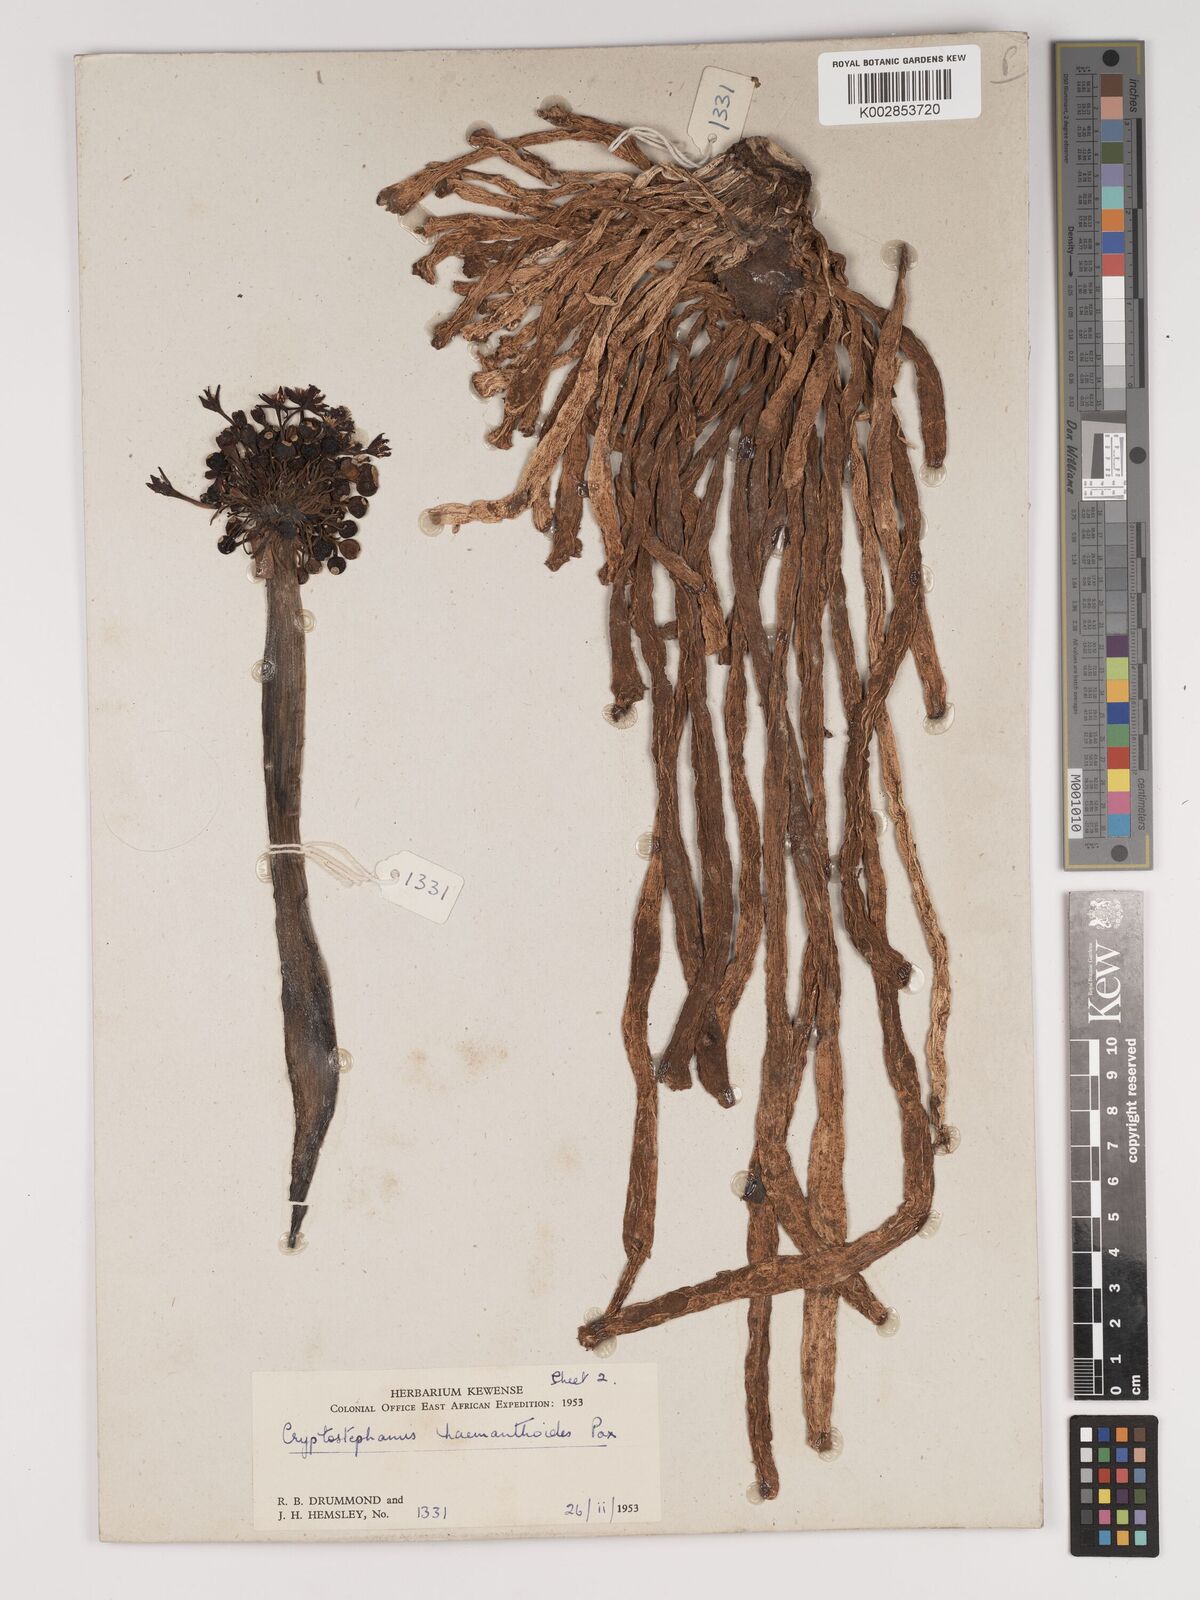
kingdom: Plantae
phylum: Tracheophyta
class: Liliopsida
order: Asparagales
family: Amaryllidaceae
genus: Cryptostephanus
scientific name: Cryptostephanus haemanthoides
